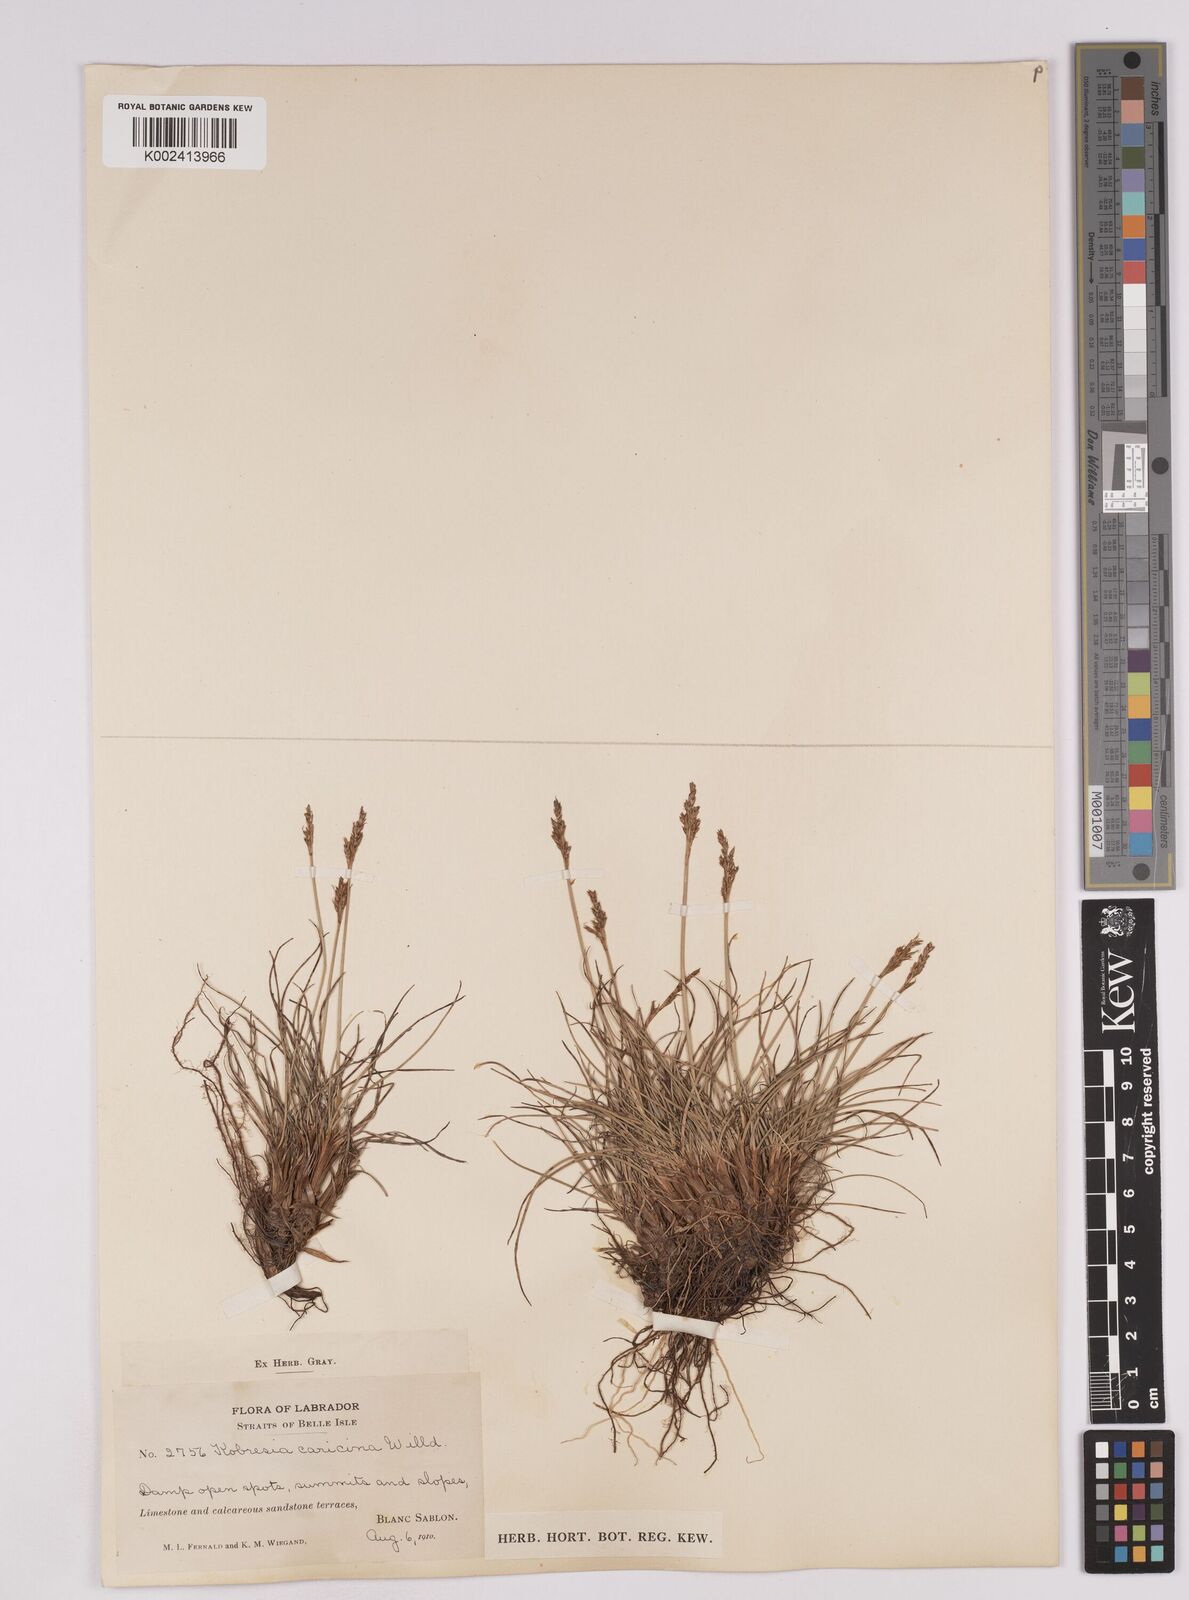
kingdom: Plantae
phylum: Tracheophyta
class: Liliopsida
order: Poales
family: Cyperaceae
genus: Carex
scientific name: Carex simpliciuscula
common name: Simple bog sedge
